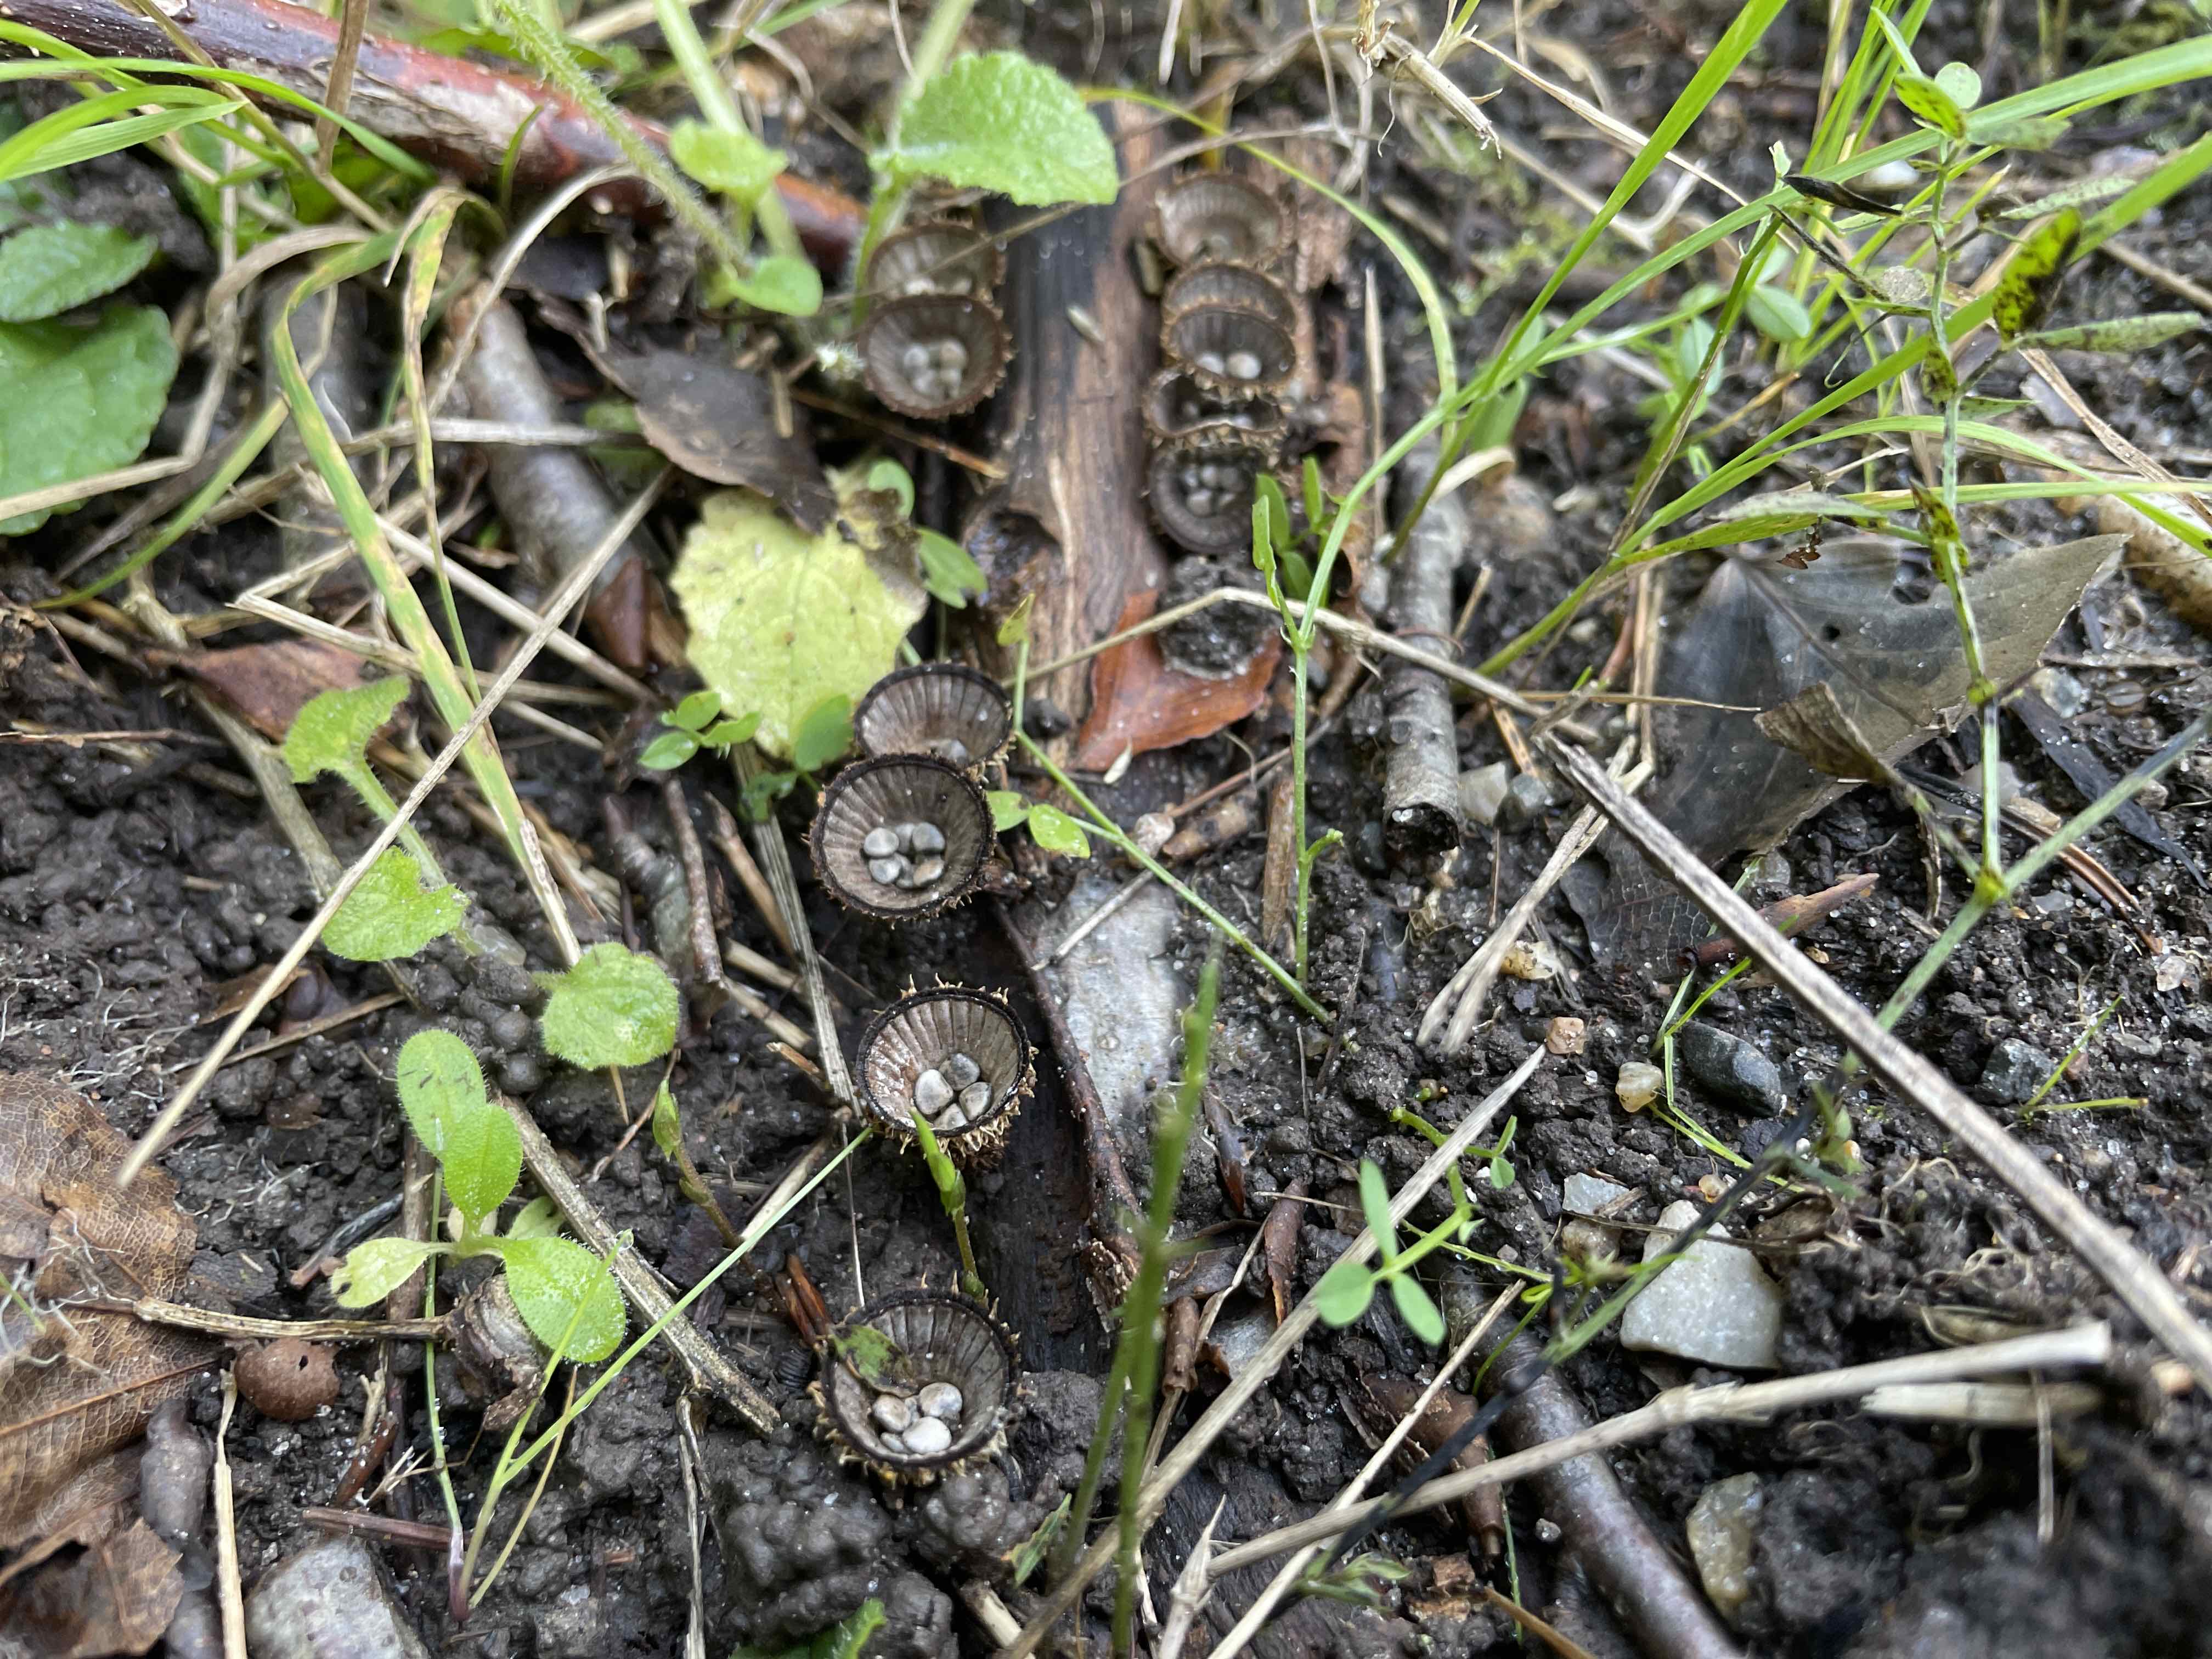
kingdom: Fungi
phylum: Basidiomycota
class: Agaricomycetes
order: Agaricales
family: Agaricaceae
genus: Cyathus
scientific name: Cyathus striatus
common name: stribet redesvamp
